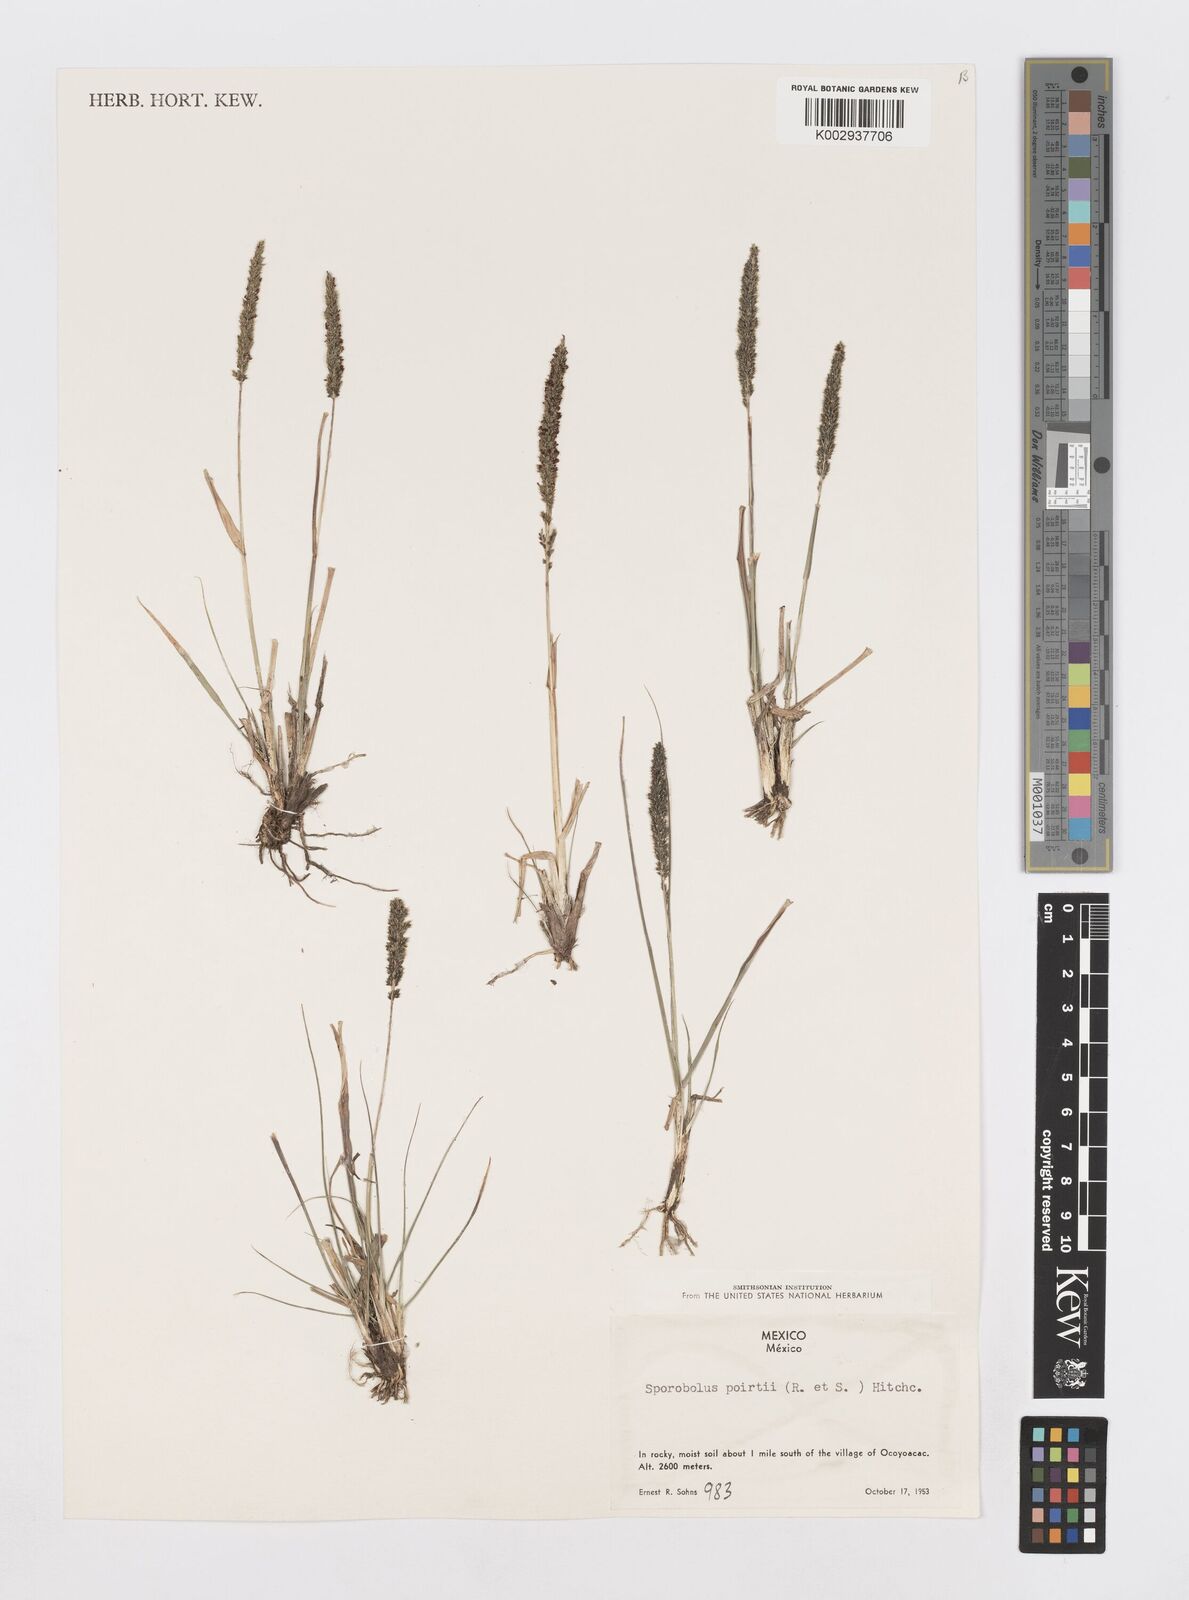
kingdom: Plantae
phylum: Tracheophyta
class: Liliopsida
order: Poales
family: Poaceae
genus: Sporobolus
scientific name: Sporobolus junceus
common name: Lizard grass
